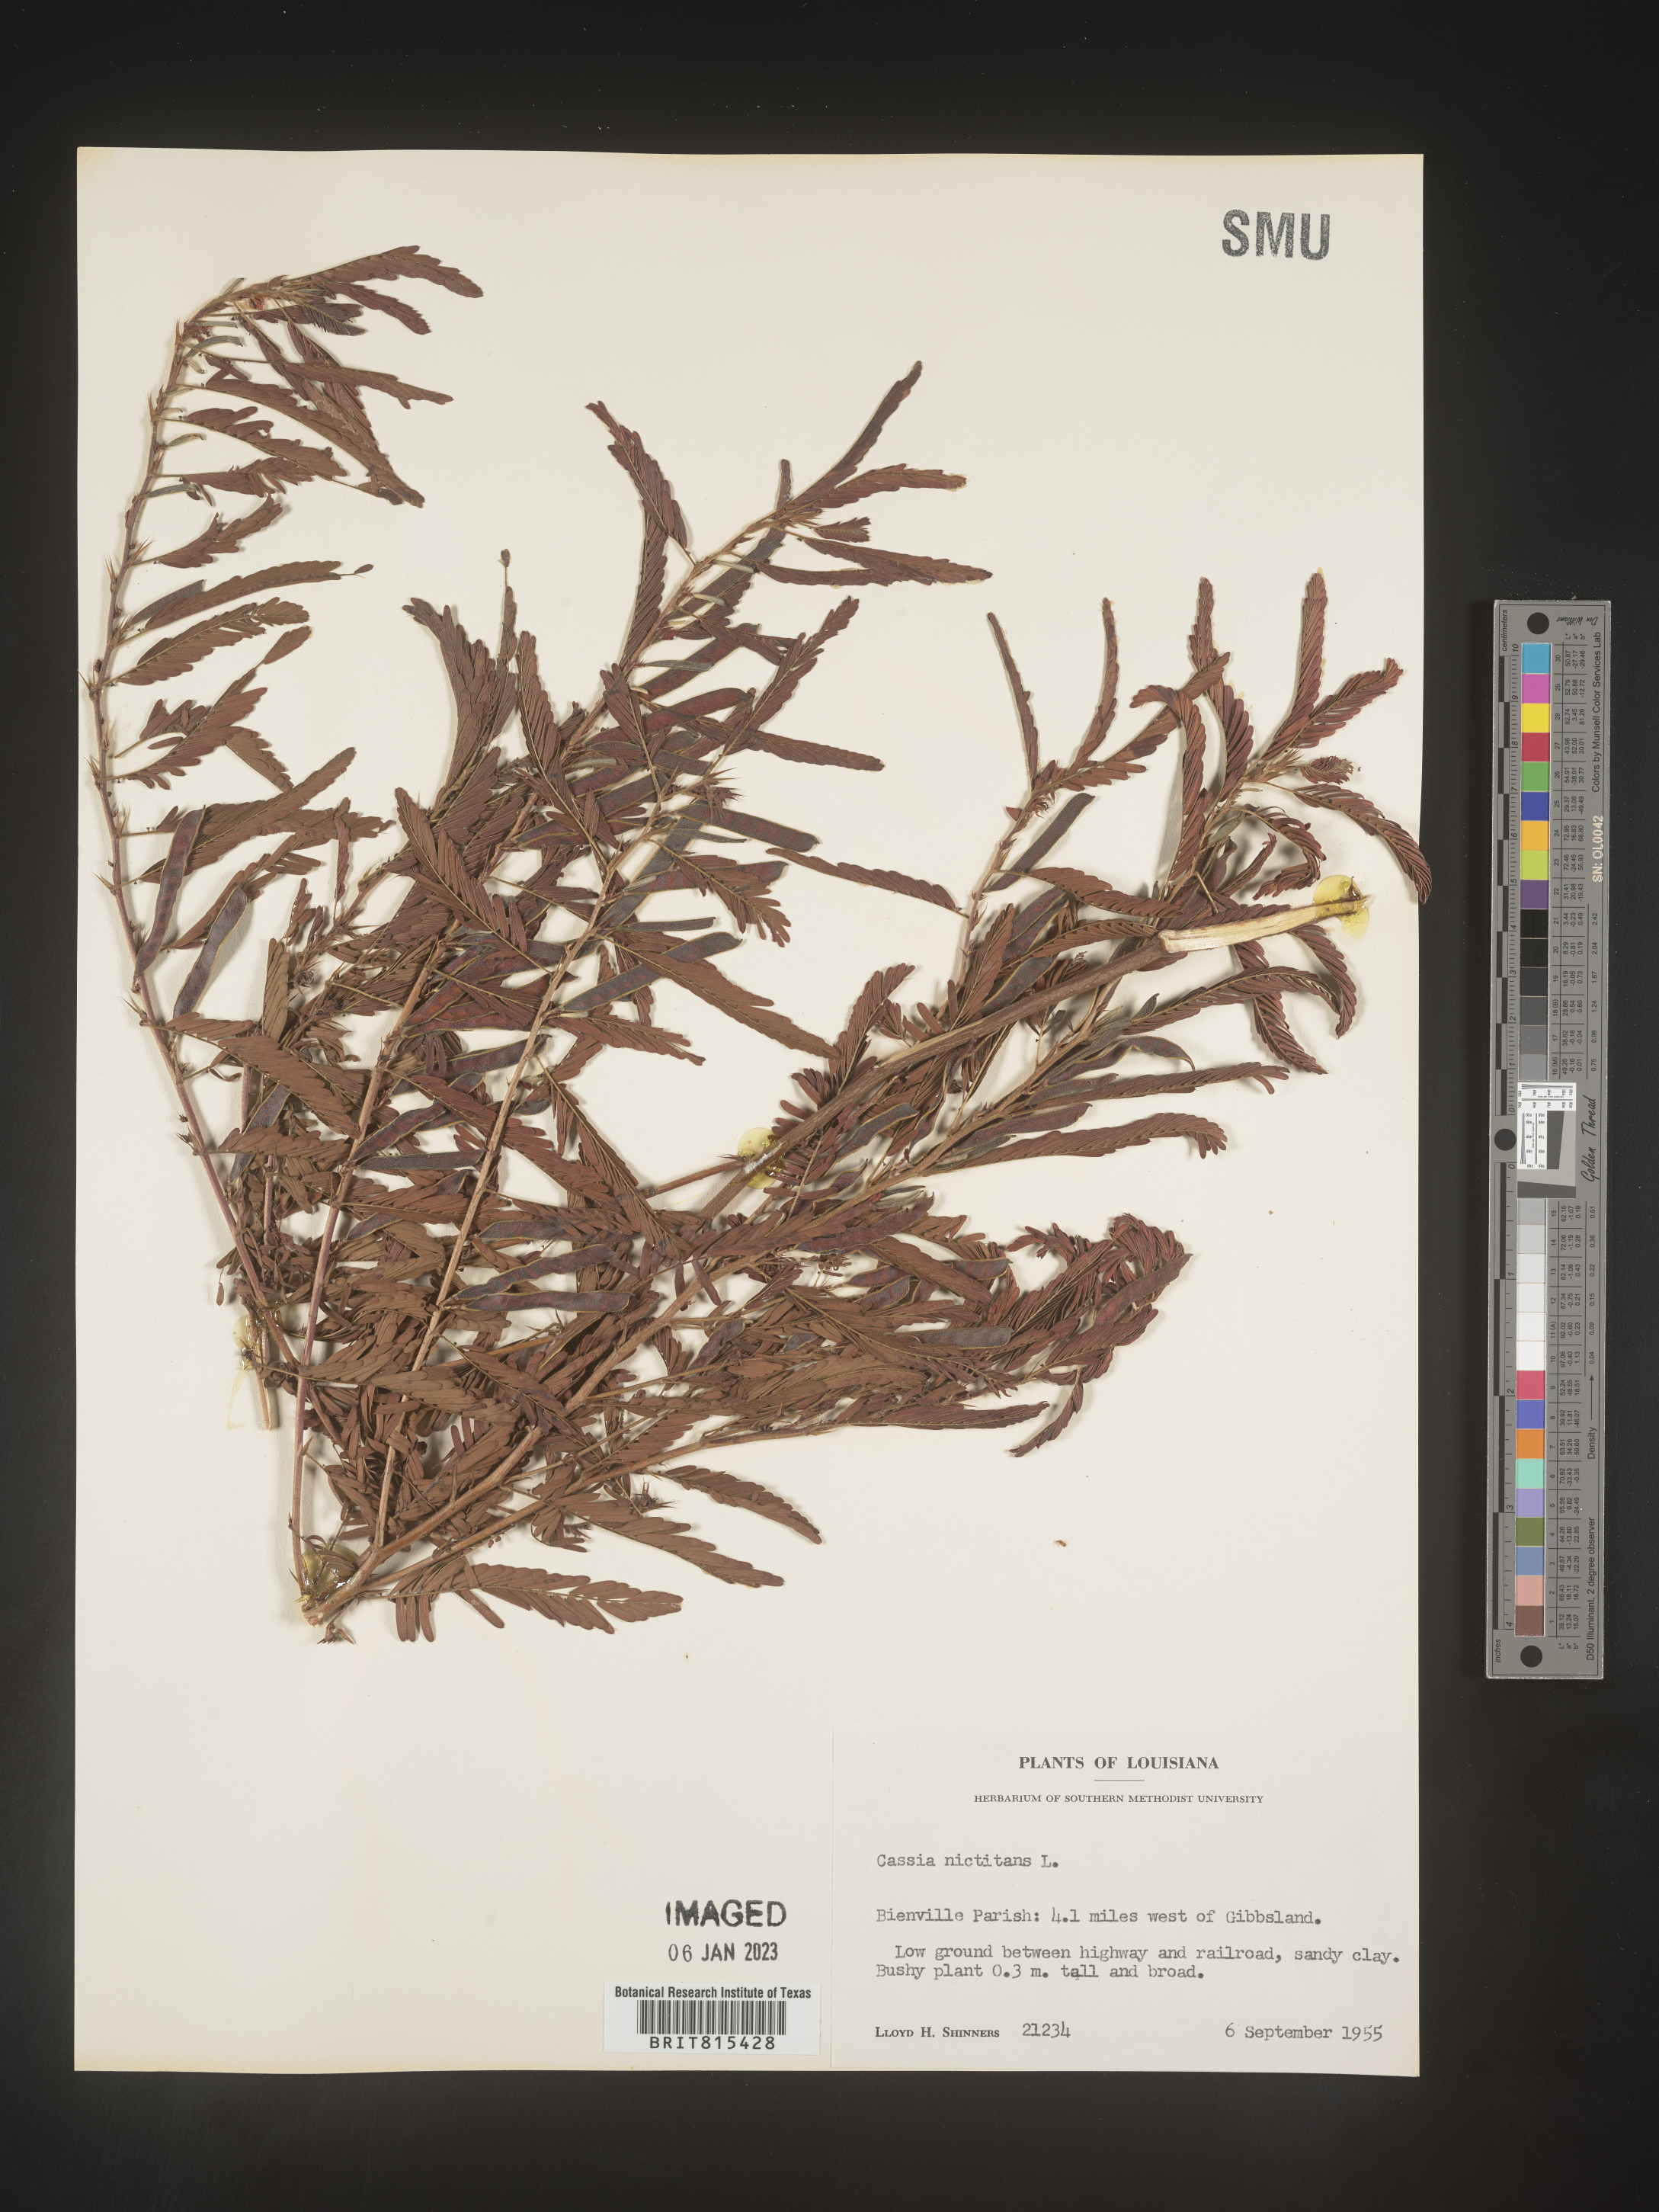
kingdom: Plantae
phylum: Tracheophyta
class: Magnoliopsida
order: Fabales
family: Fabaceae
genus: Chamaecrista
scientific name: Chamaecrista nictitans
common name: Sensitive cassia
